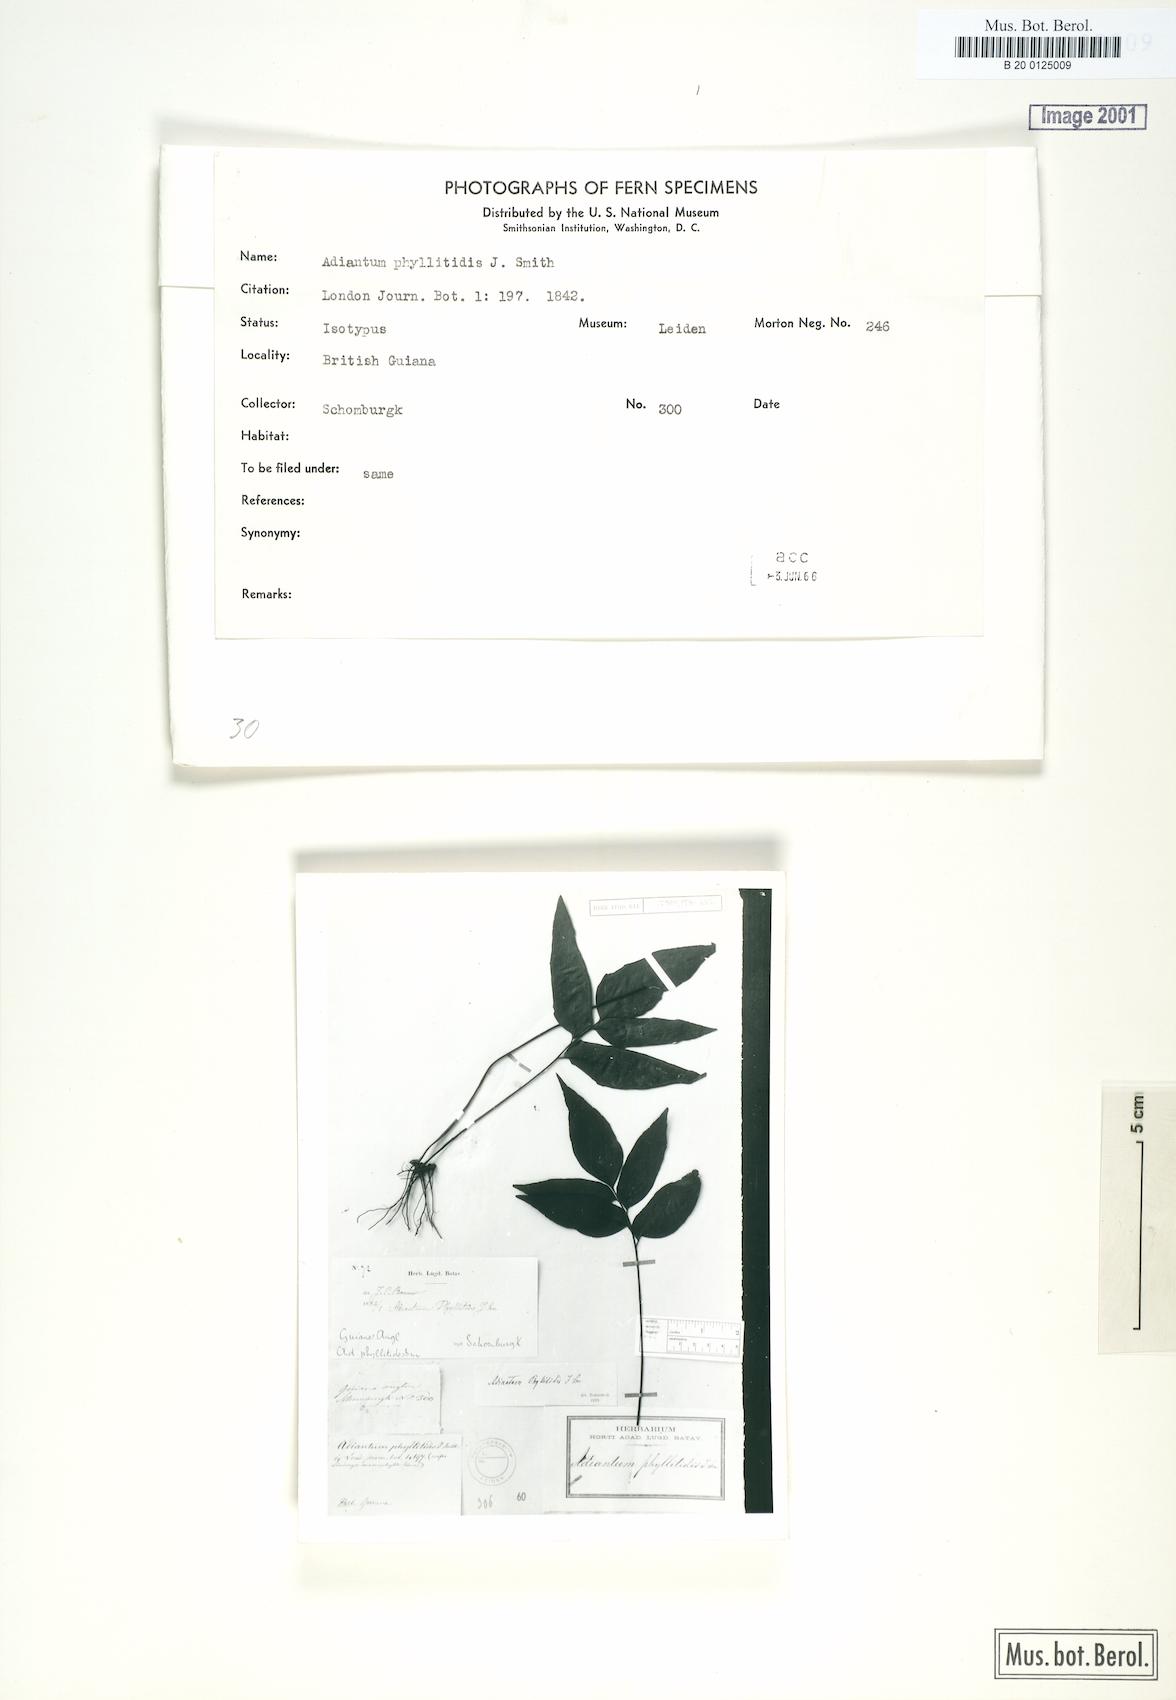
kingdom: Plantae
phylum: Tracheophyta
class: Polypodiopsida
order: Polypodiales
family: Pteridaceae
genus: Adiantum
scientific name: Adiantum phyllitidis
